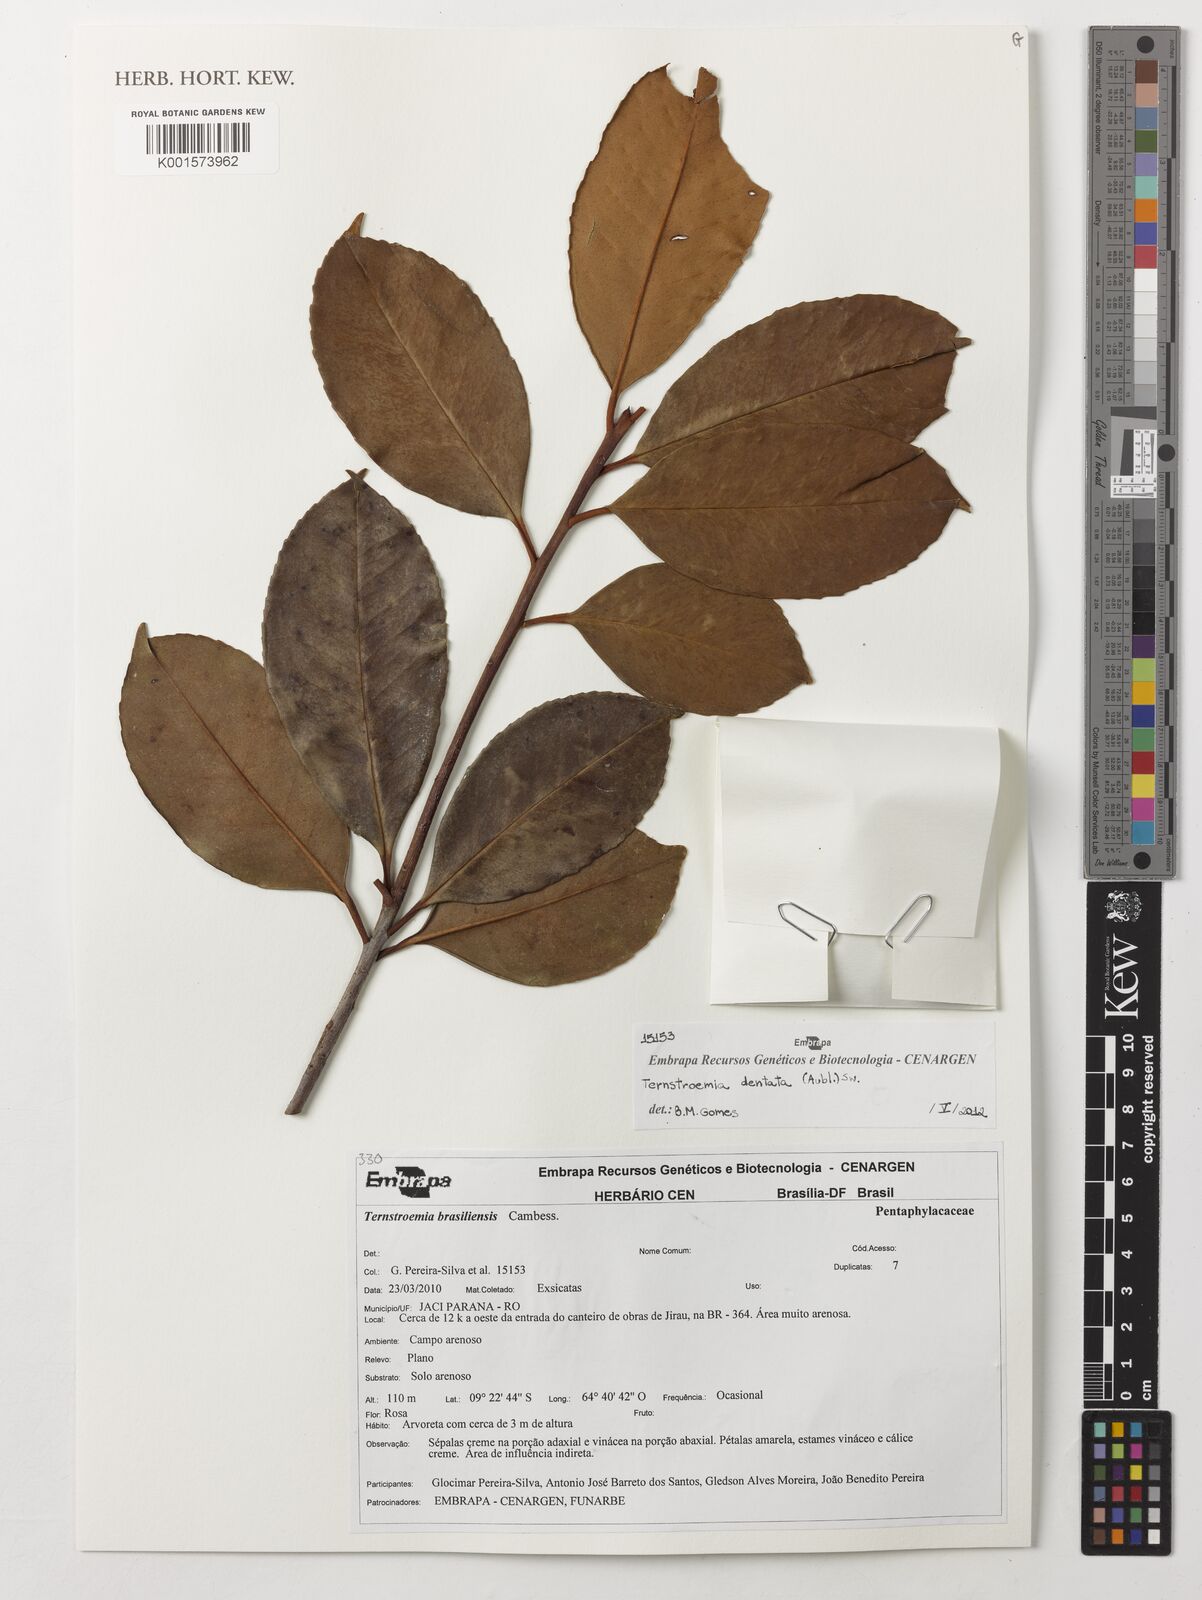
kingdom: Plantae
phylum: Tracheophyta
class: Magnoliopsida
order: Ericales
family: Pentaphylacaceae
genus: Ternstroemia
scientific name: Ternstroemia dentata
